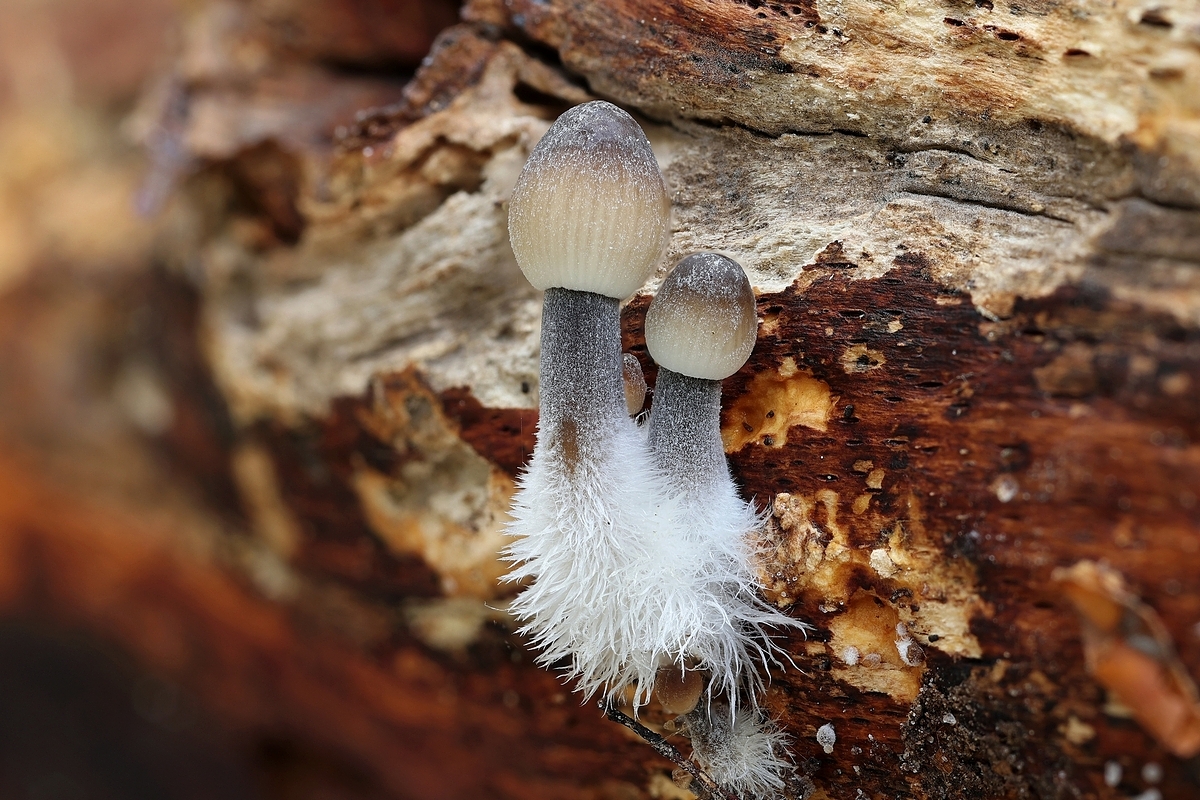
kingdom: Fungi
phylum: Basidiomycota
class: Agaricomycetes
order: Agaricales
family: Mycenaceae
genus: Mycena
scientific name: Mycena
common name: huesvamp
